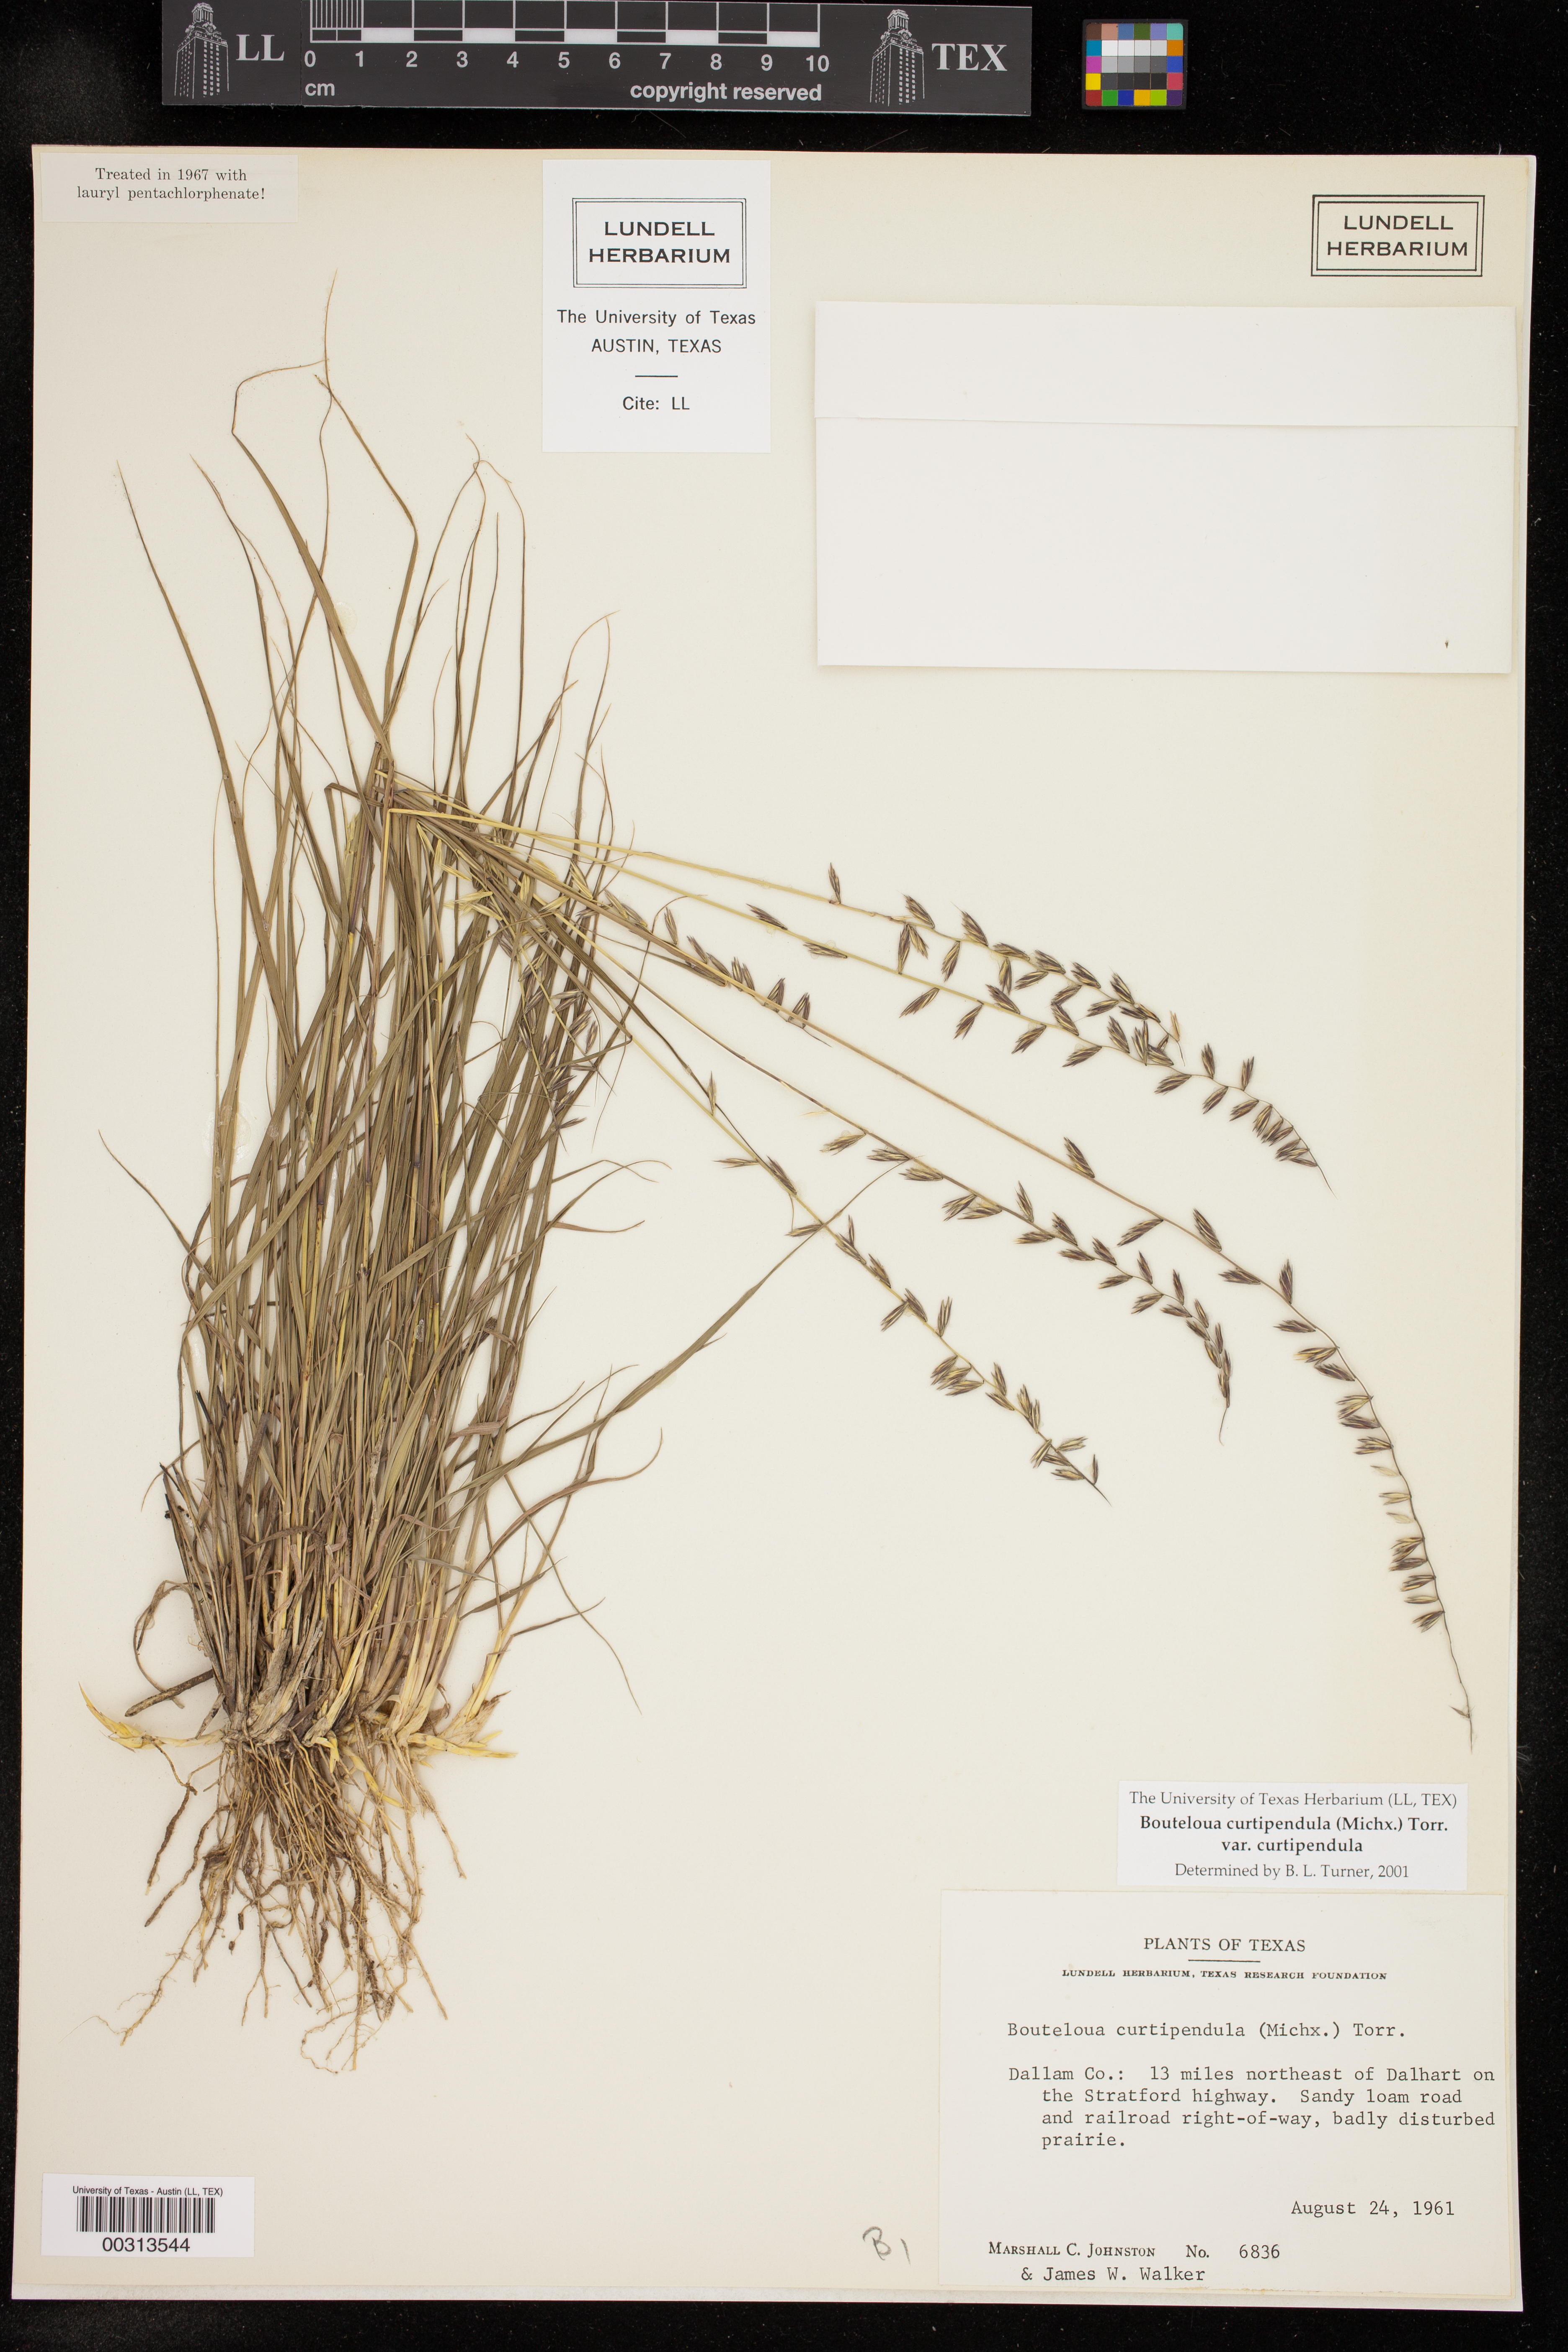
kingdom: Plantae
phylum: Tracheophyta
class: Liliopsida
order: Poales
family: Poaceae
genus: Bouteloua
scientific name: Bouteloua curtipendula
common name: Side-oats grama
